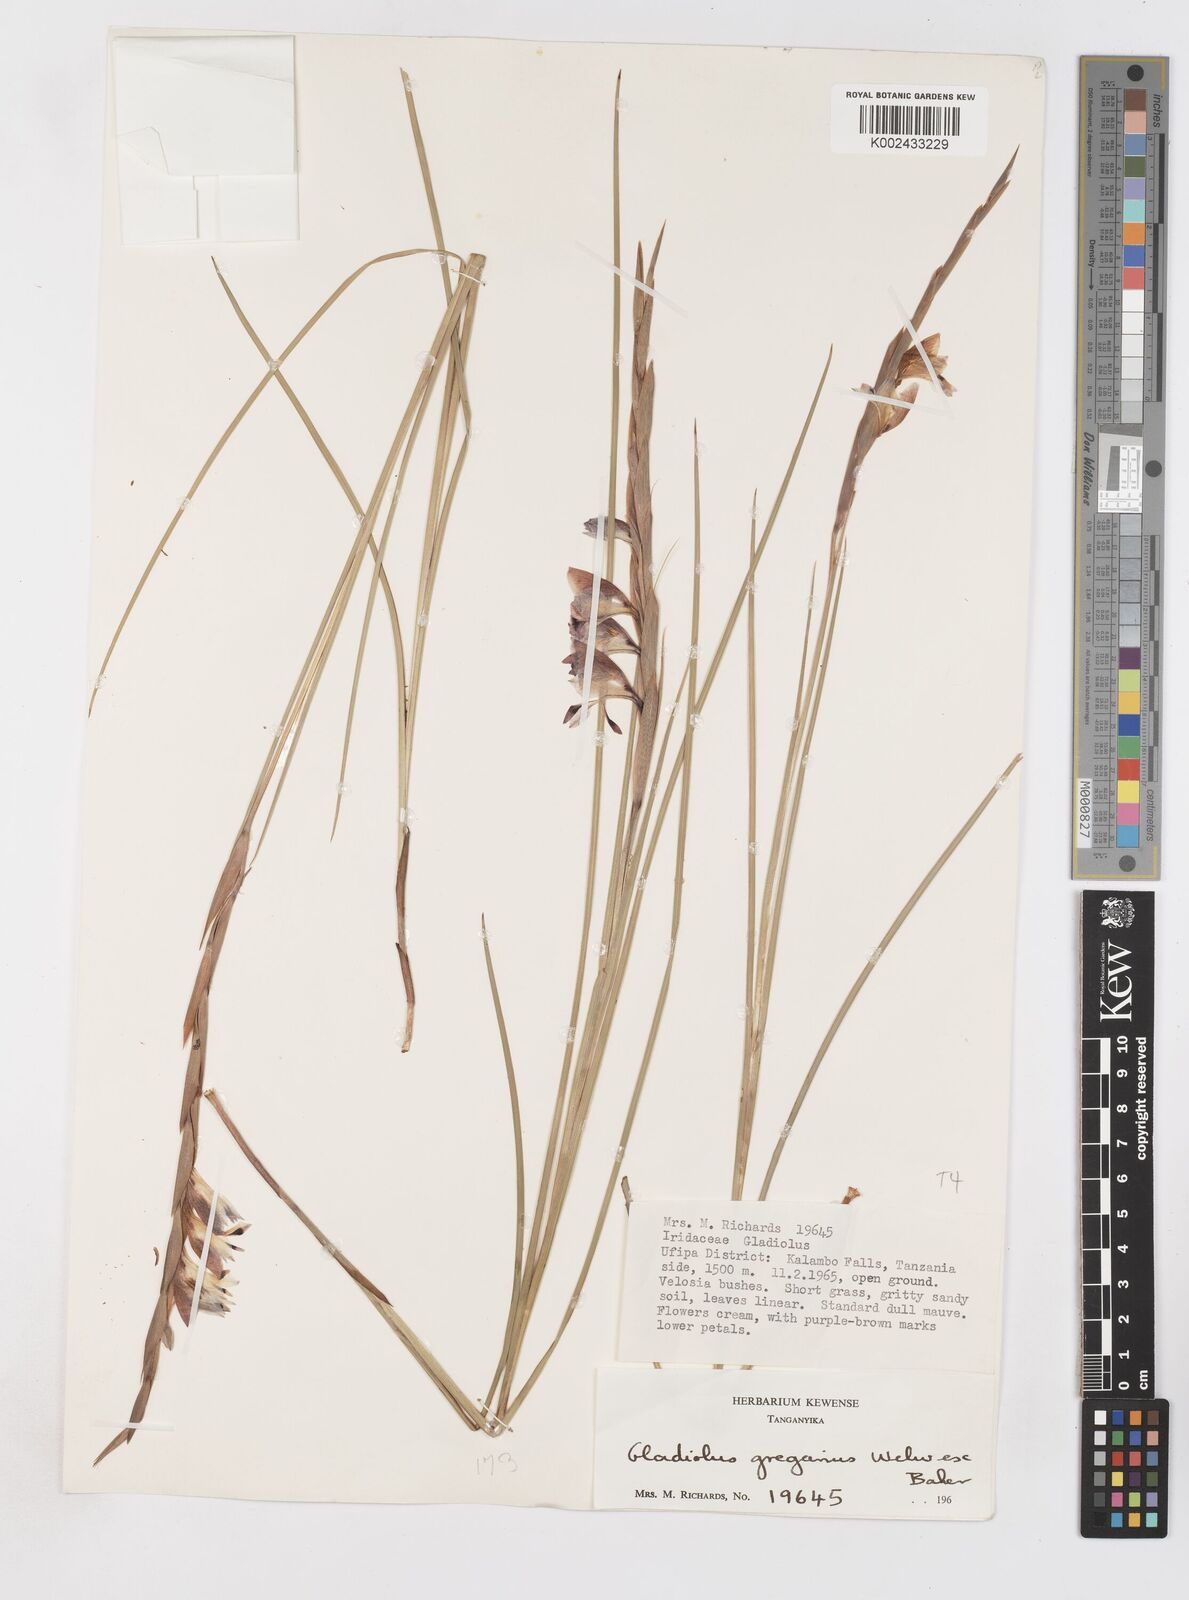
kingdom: Plantae
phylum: Tracheophyta
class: Liliopsida
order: Asparagales
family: Iridaceae
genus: Gladiolus
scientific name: Gladiolus gregarius
